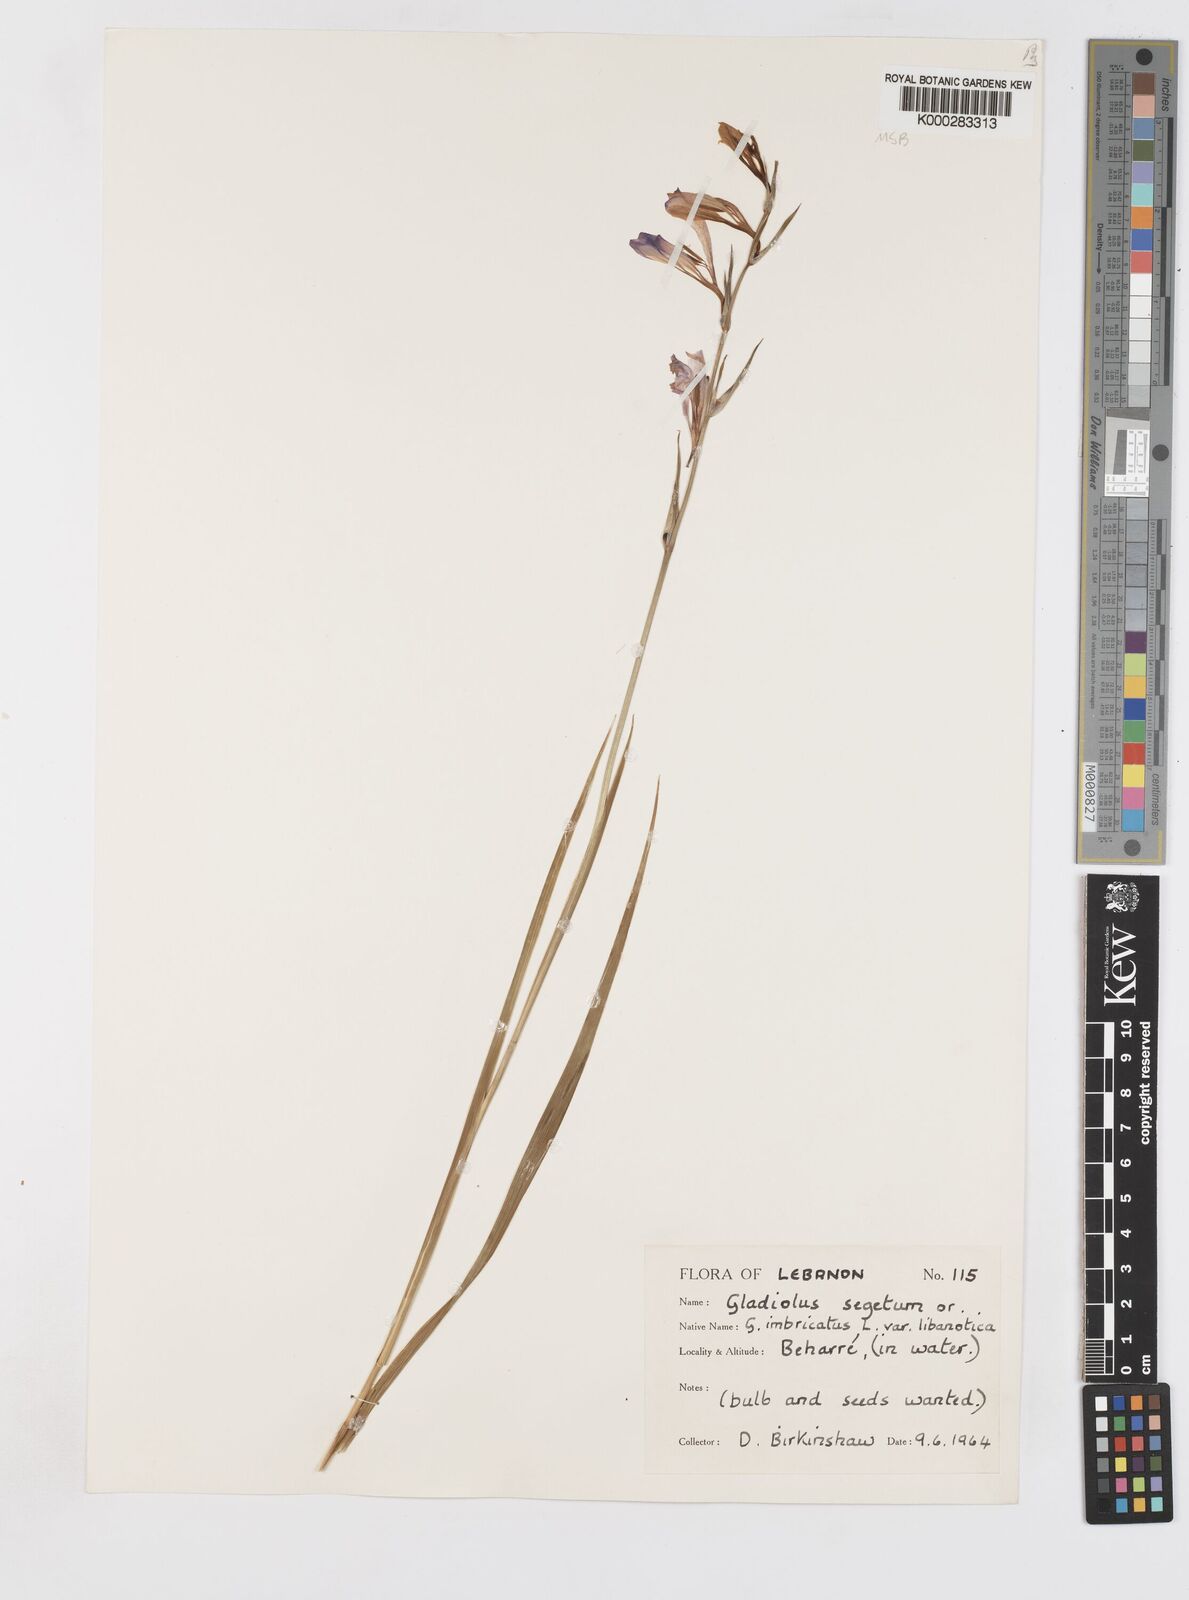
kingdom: Plantae
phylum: Tracheophyta
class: Liliopsida
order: Asparagales
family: Iridaceae
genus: Gladiolus
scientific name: Gladiolus italicus
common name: Field gladiolus
